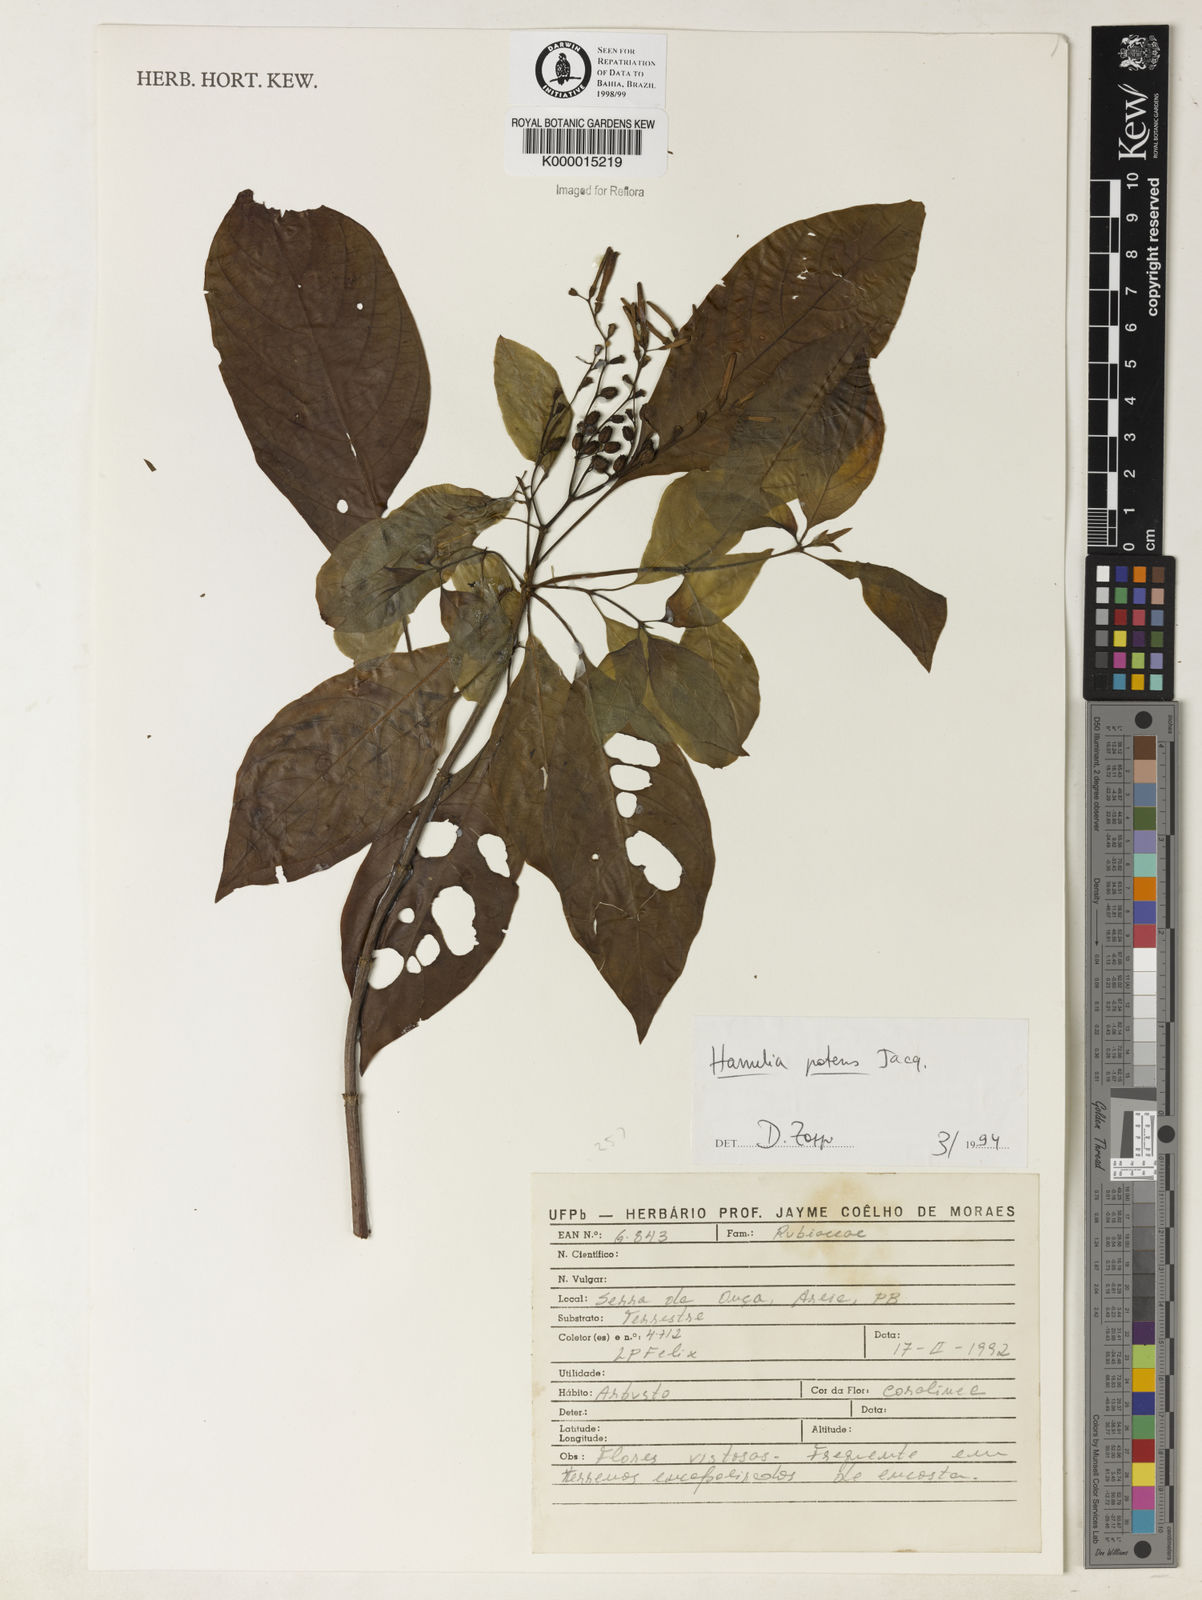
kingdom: Plantae
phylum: Tracheophyta
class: Magnoliopsida
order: Gentianales
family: Rubiaceae
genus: Hamelia
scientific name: Hamelia patens
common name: Redhead
